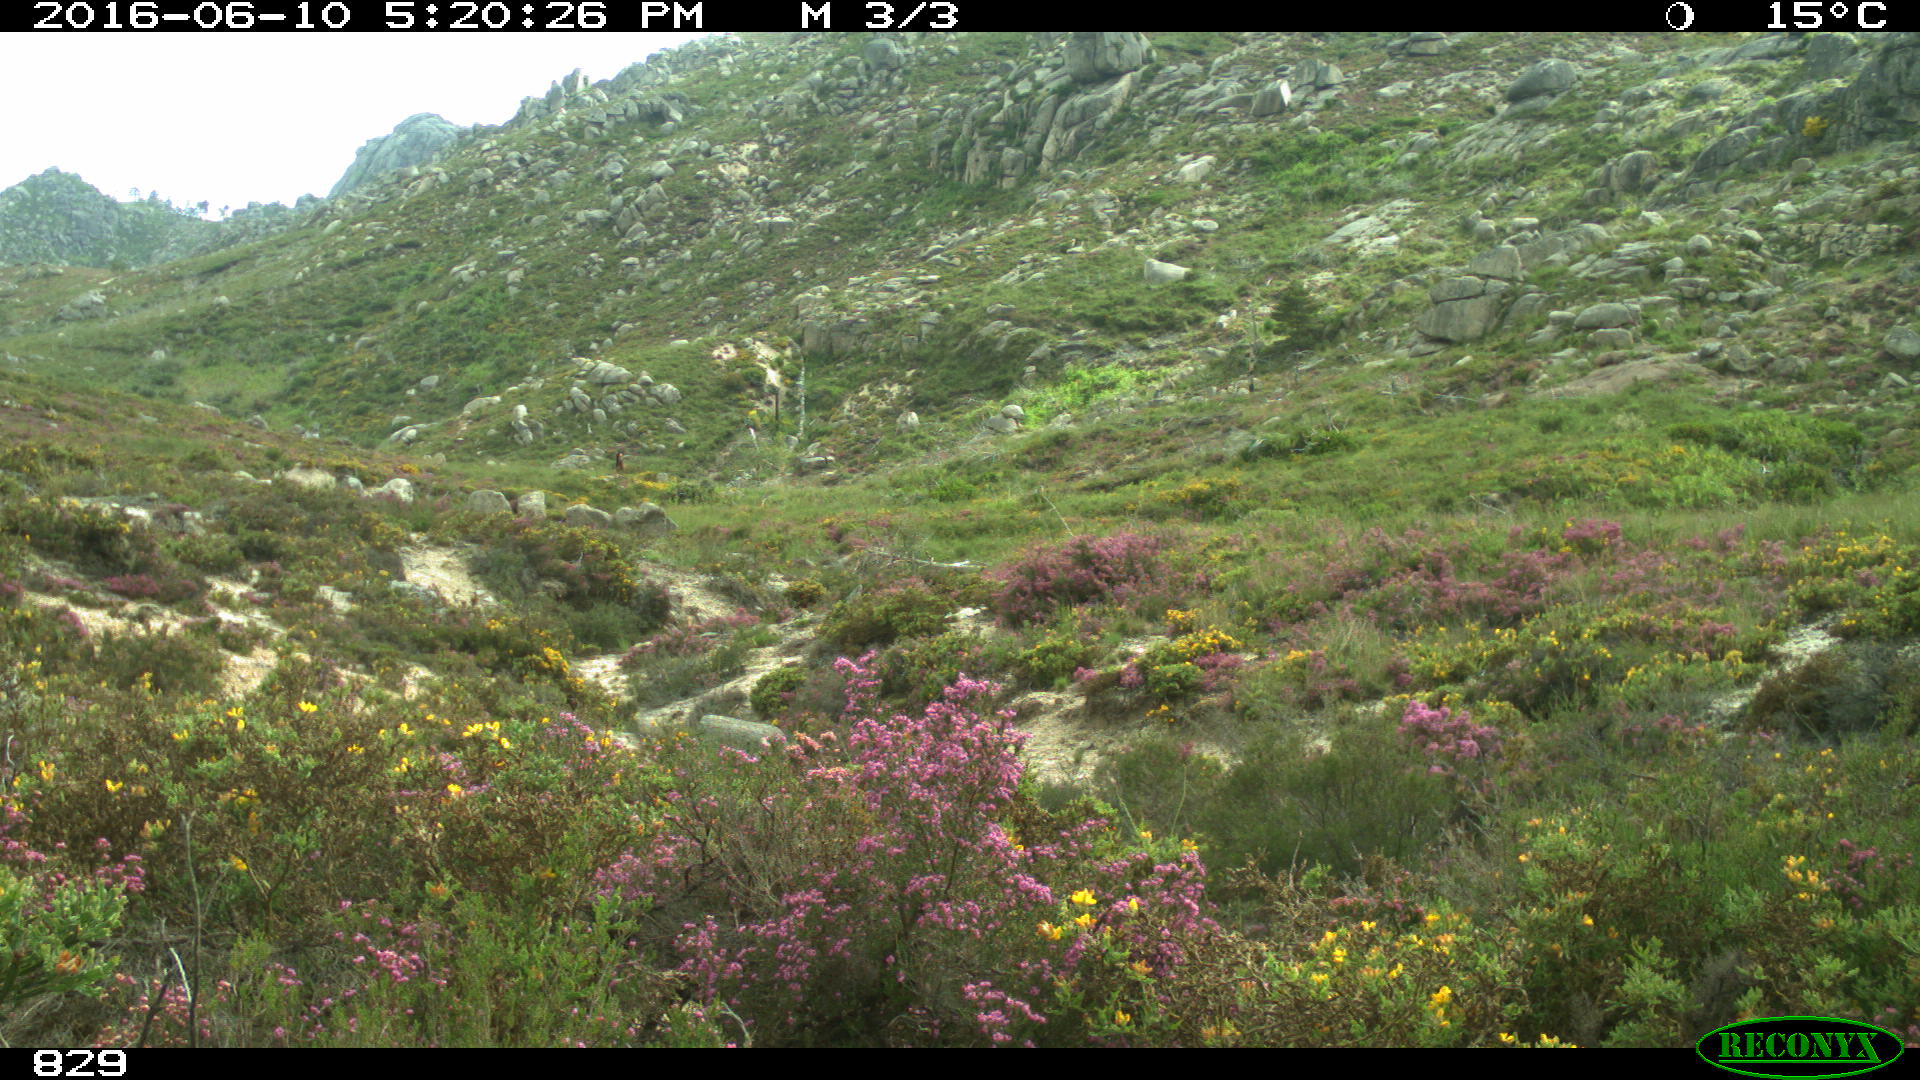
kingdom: Animalia
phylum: Chordata
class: Mammalia
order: Perissodactyla
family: Equidae
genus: Equus
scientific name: Equus caballus
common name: Horse
